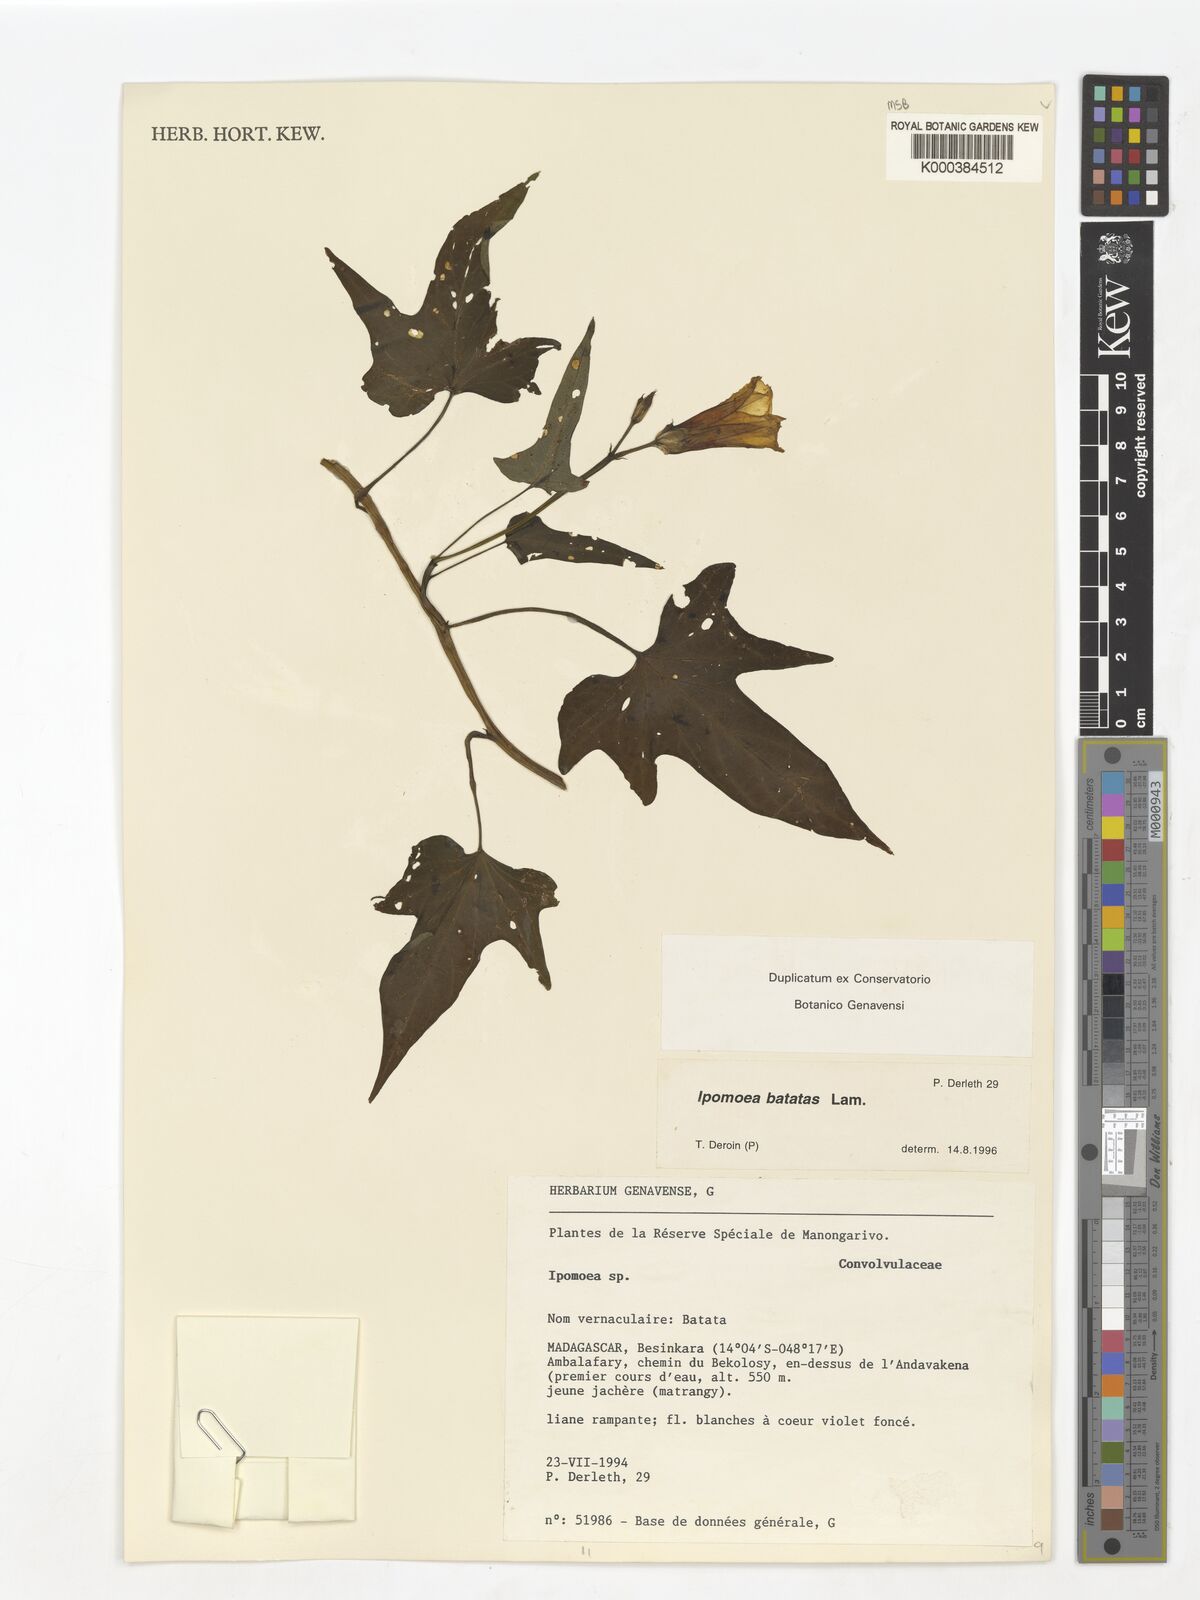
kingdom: Plantae
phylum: Tracheophyta
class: Magnoliopsida
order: Solanales
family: Convolvulaceae
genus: Ipomoea
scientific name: Ipomoea
